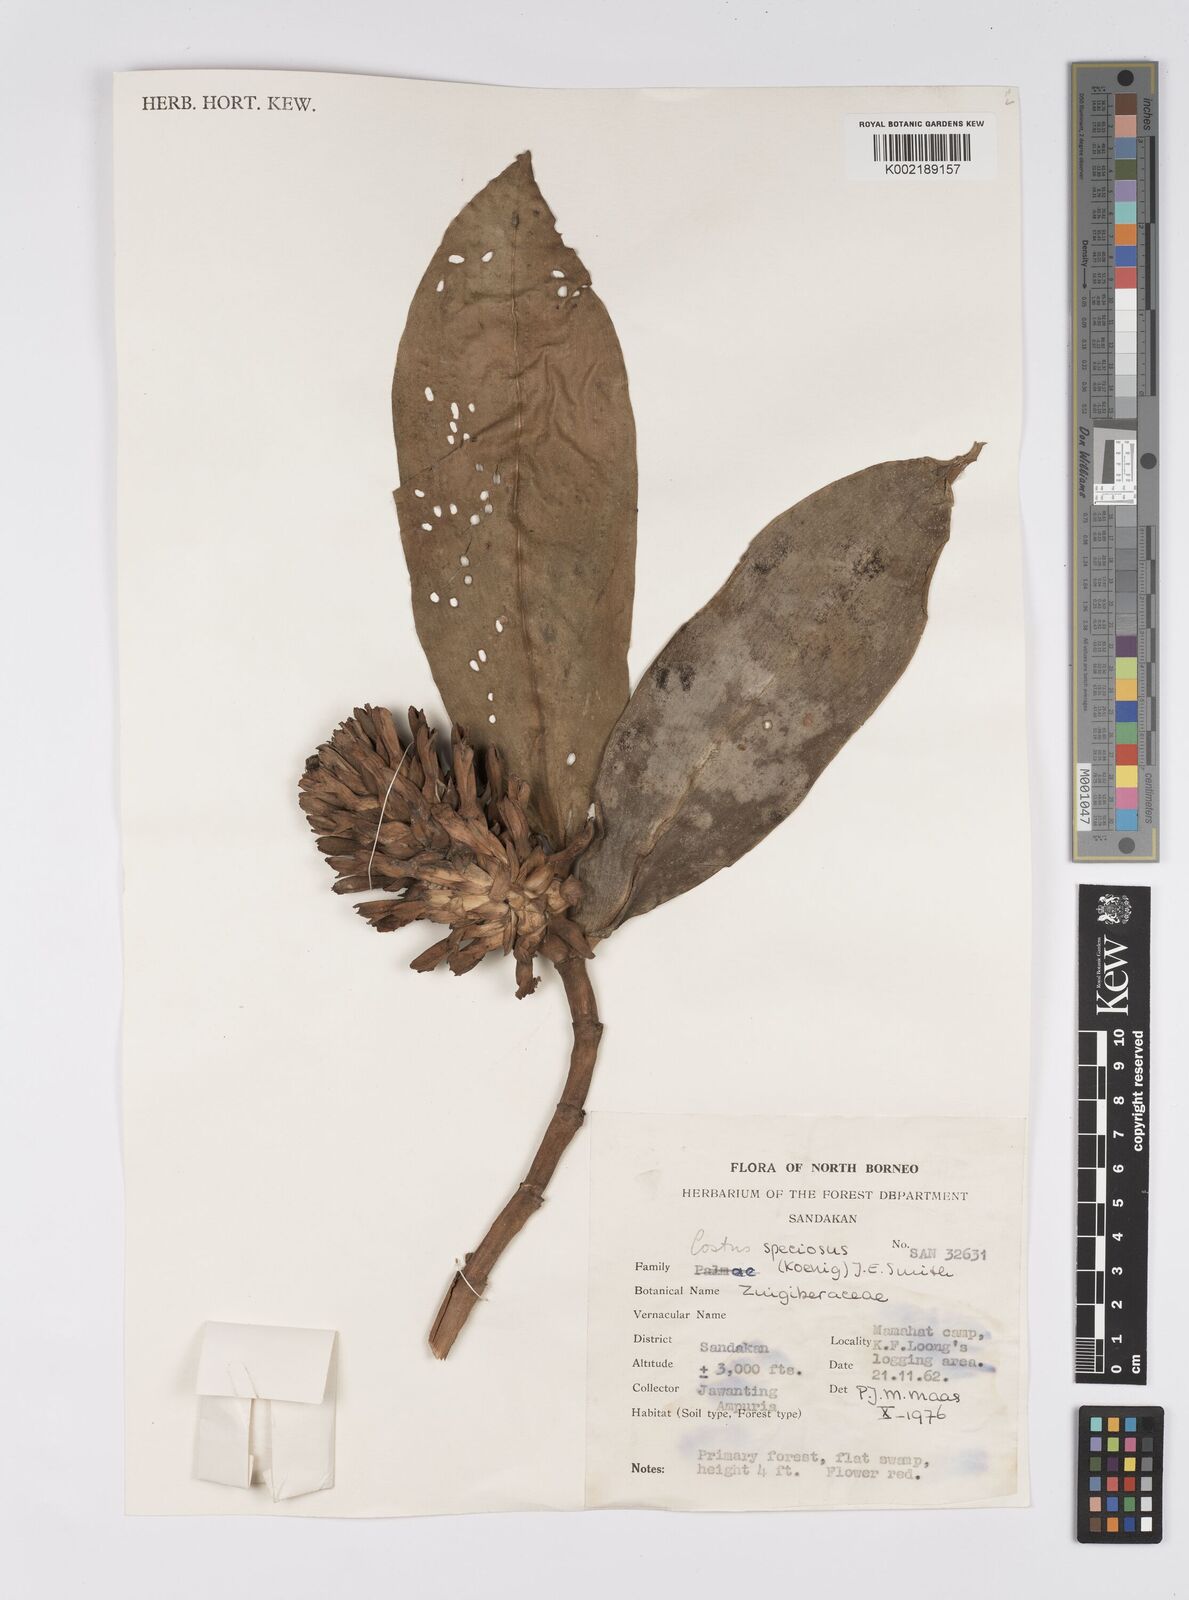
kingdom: Plantae
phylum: Tracheophyta
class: Liliopsida
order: Zingiberales
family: Costaceae
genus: Hellenia
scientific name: Hellenia speciosa
